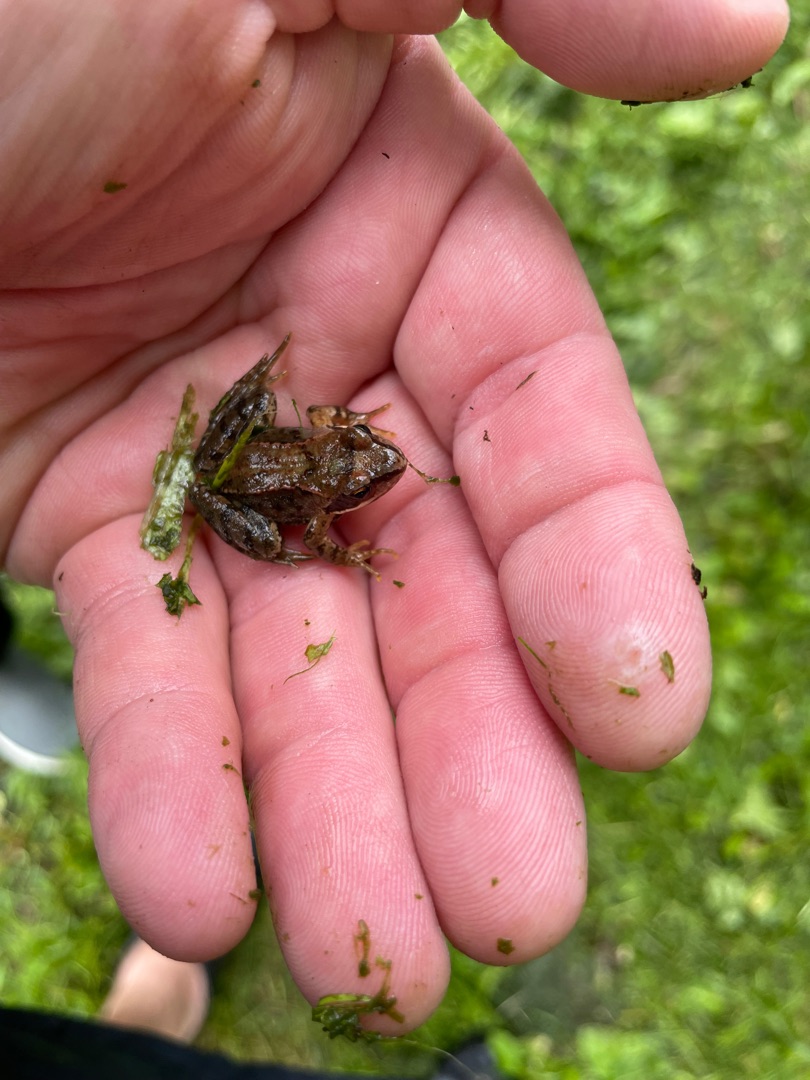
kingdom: Animalia
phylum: Chordata
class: Amphibia
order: Anura
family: Ranidae
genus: Rana
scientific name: Rana temporaria
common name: Butsnudet frø
